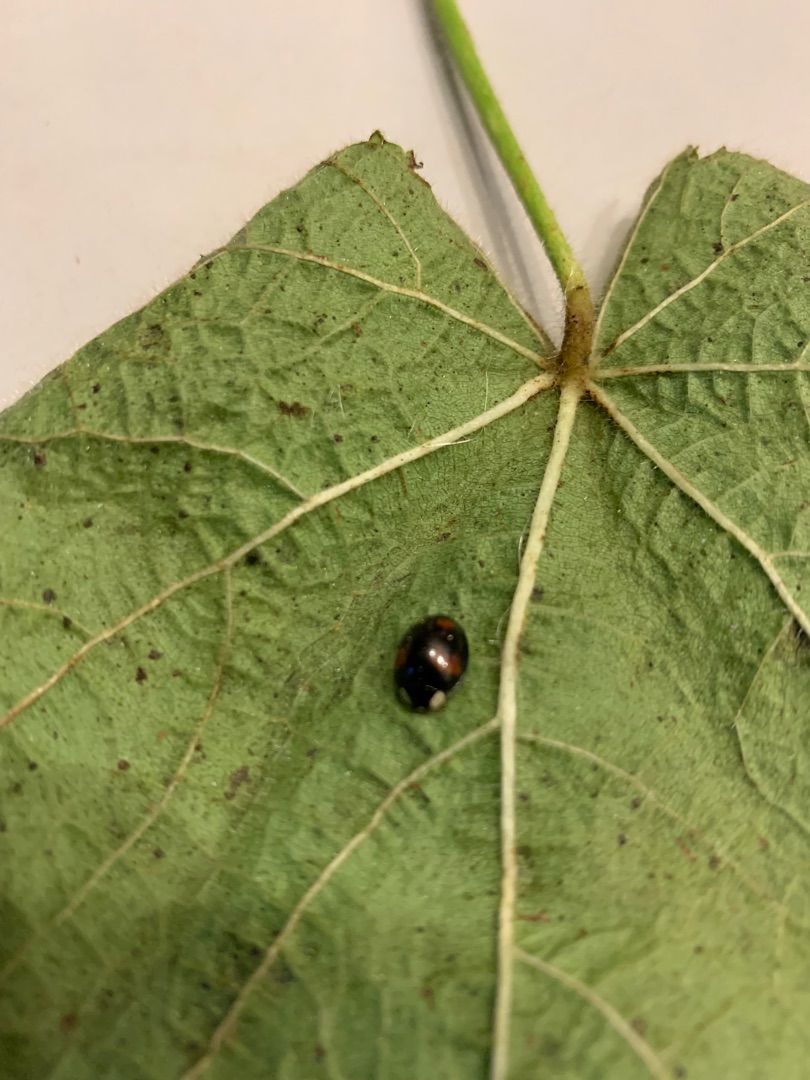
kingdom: Animalia
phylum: Arthropoda
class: Insecta
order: Coleoptera
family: Coccinellidae
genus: Harmonia
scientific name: Harmonia axyridis
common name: Harlekinmariehøne
